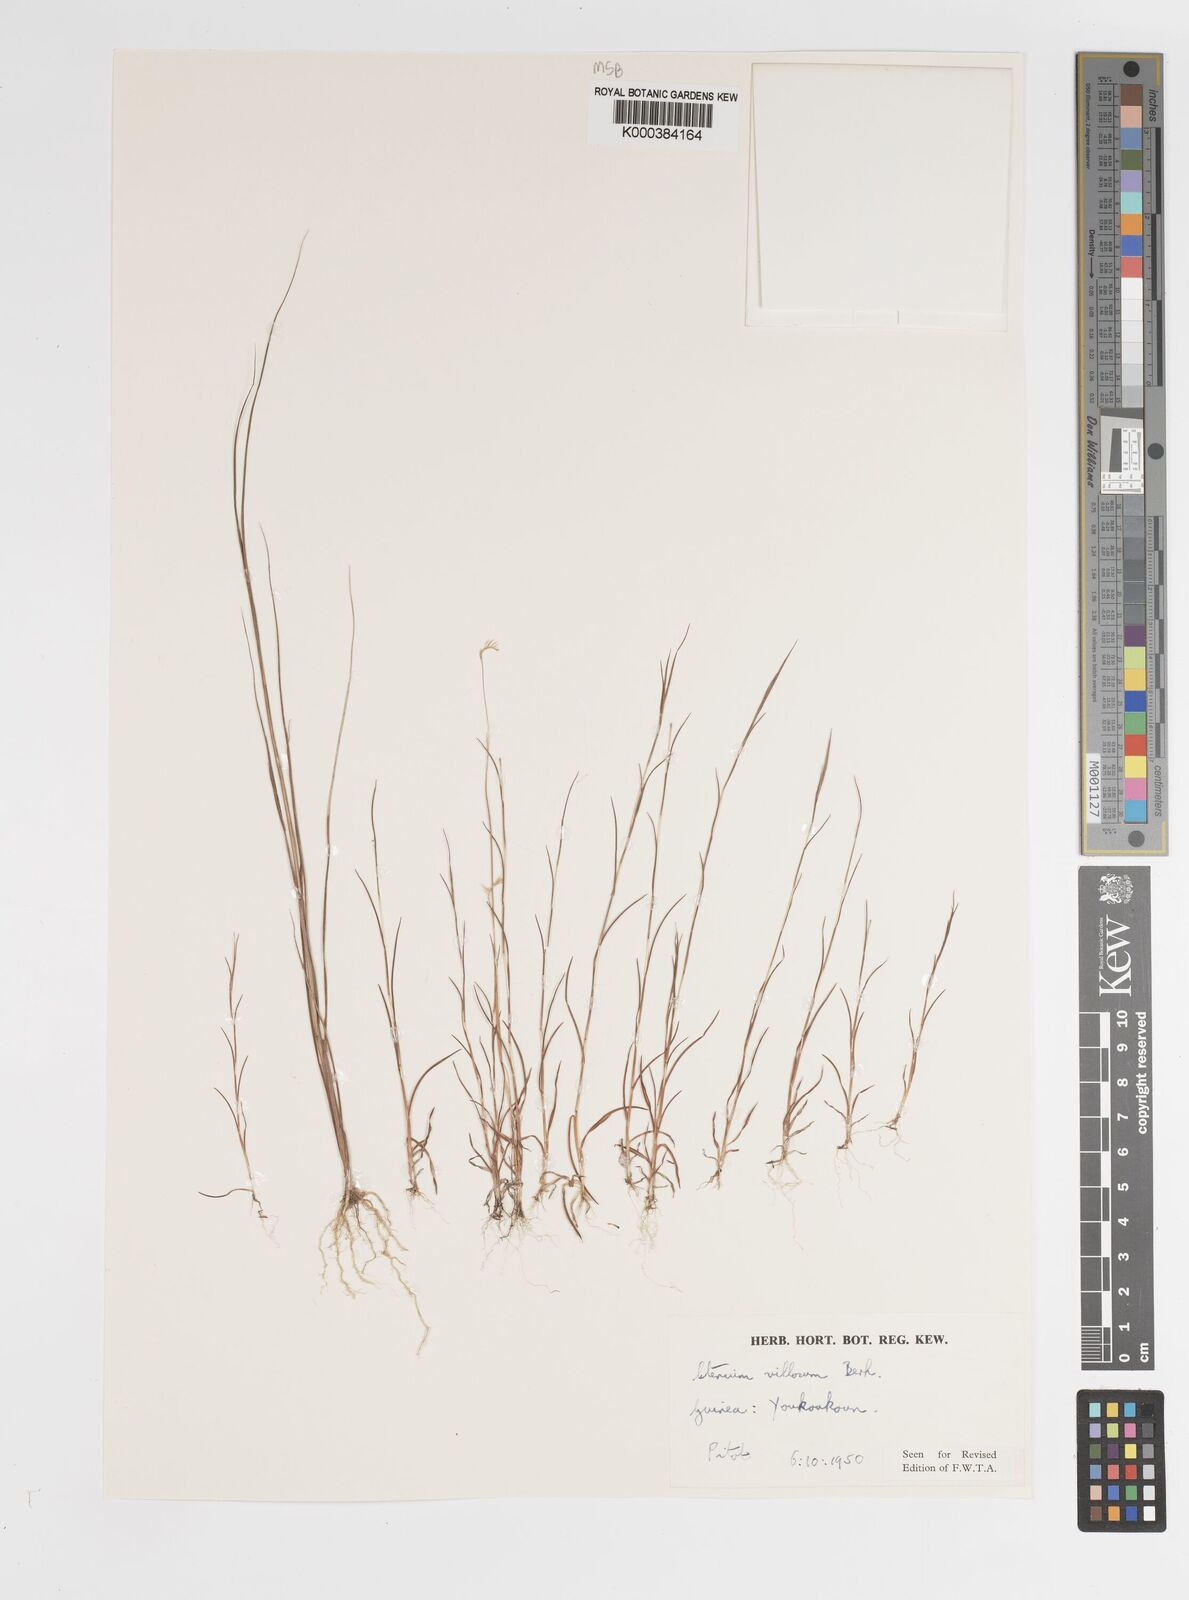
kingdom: Plantae
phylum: Tracheophyta
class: Liliopsida
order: Poales
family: Poaceae
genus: Ctenium
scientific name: Ctenium villosum
